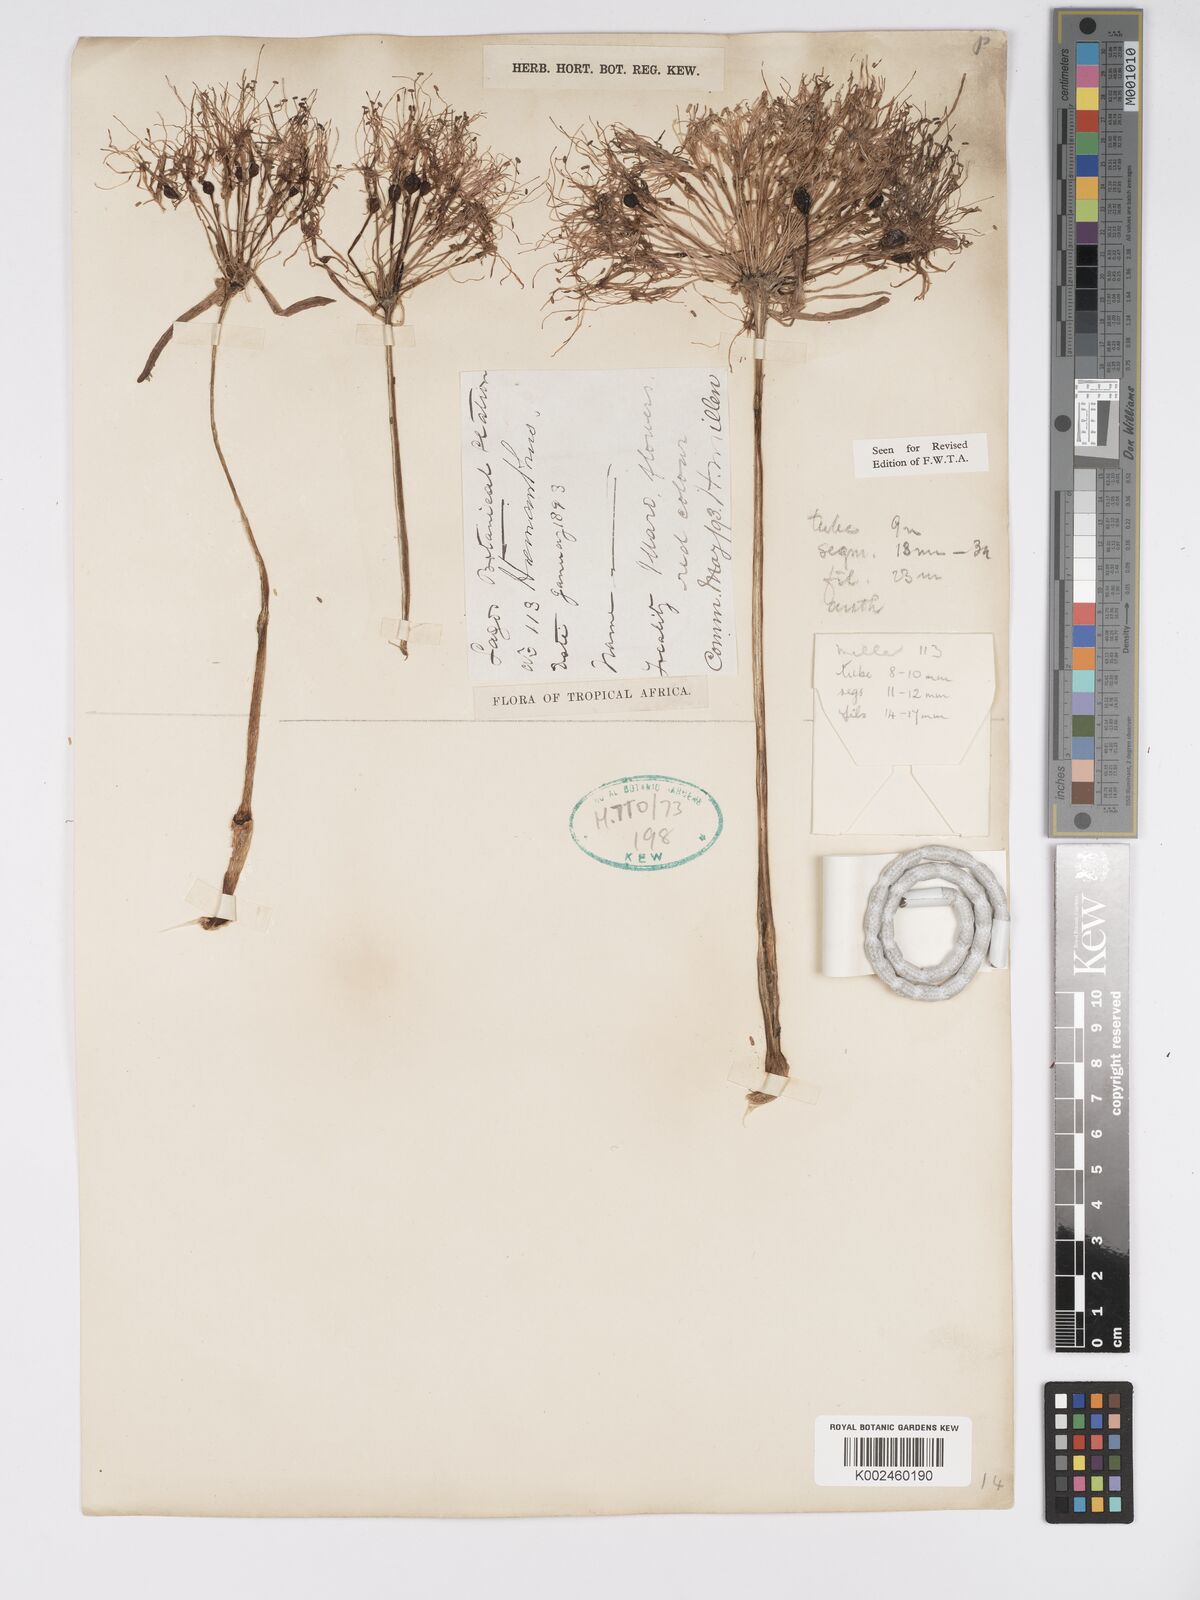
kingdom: Plantae
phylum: Tracheophyta
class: Liliopsida
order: Asparagales
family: Amaryllidaceae
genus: Scadoxus
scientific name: Scadoxus multiflorus
